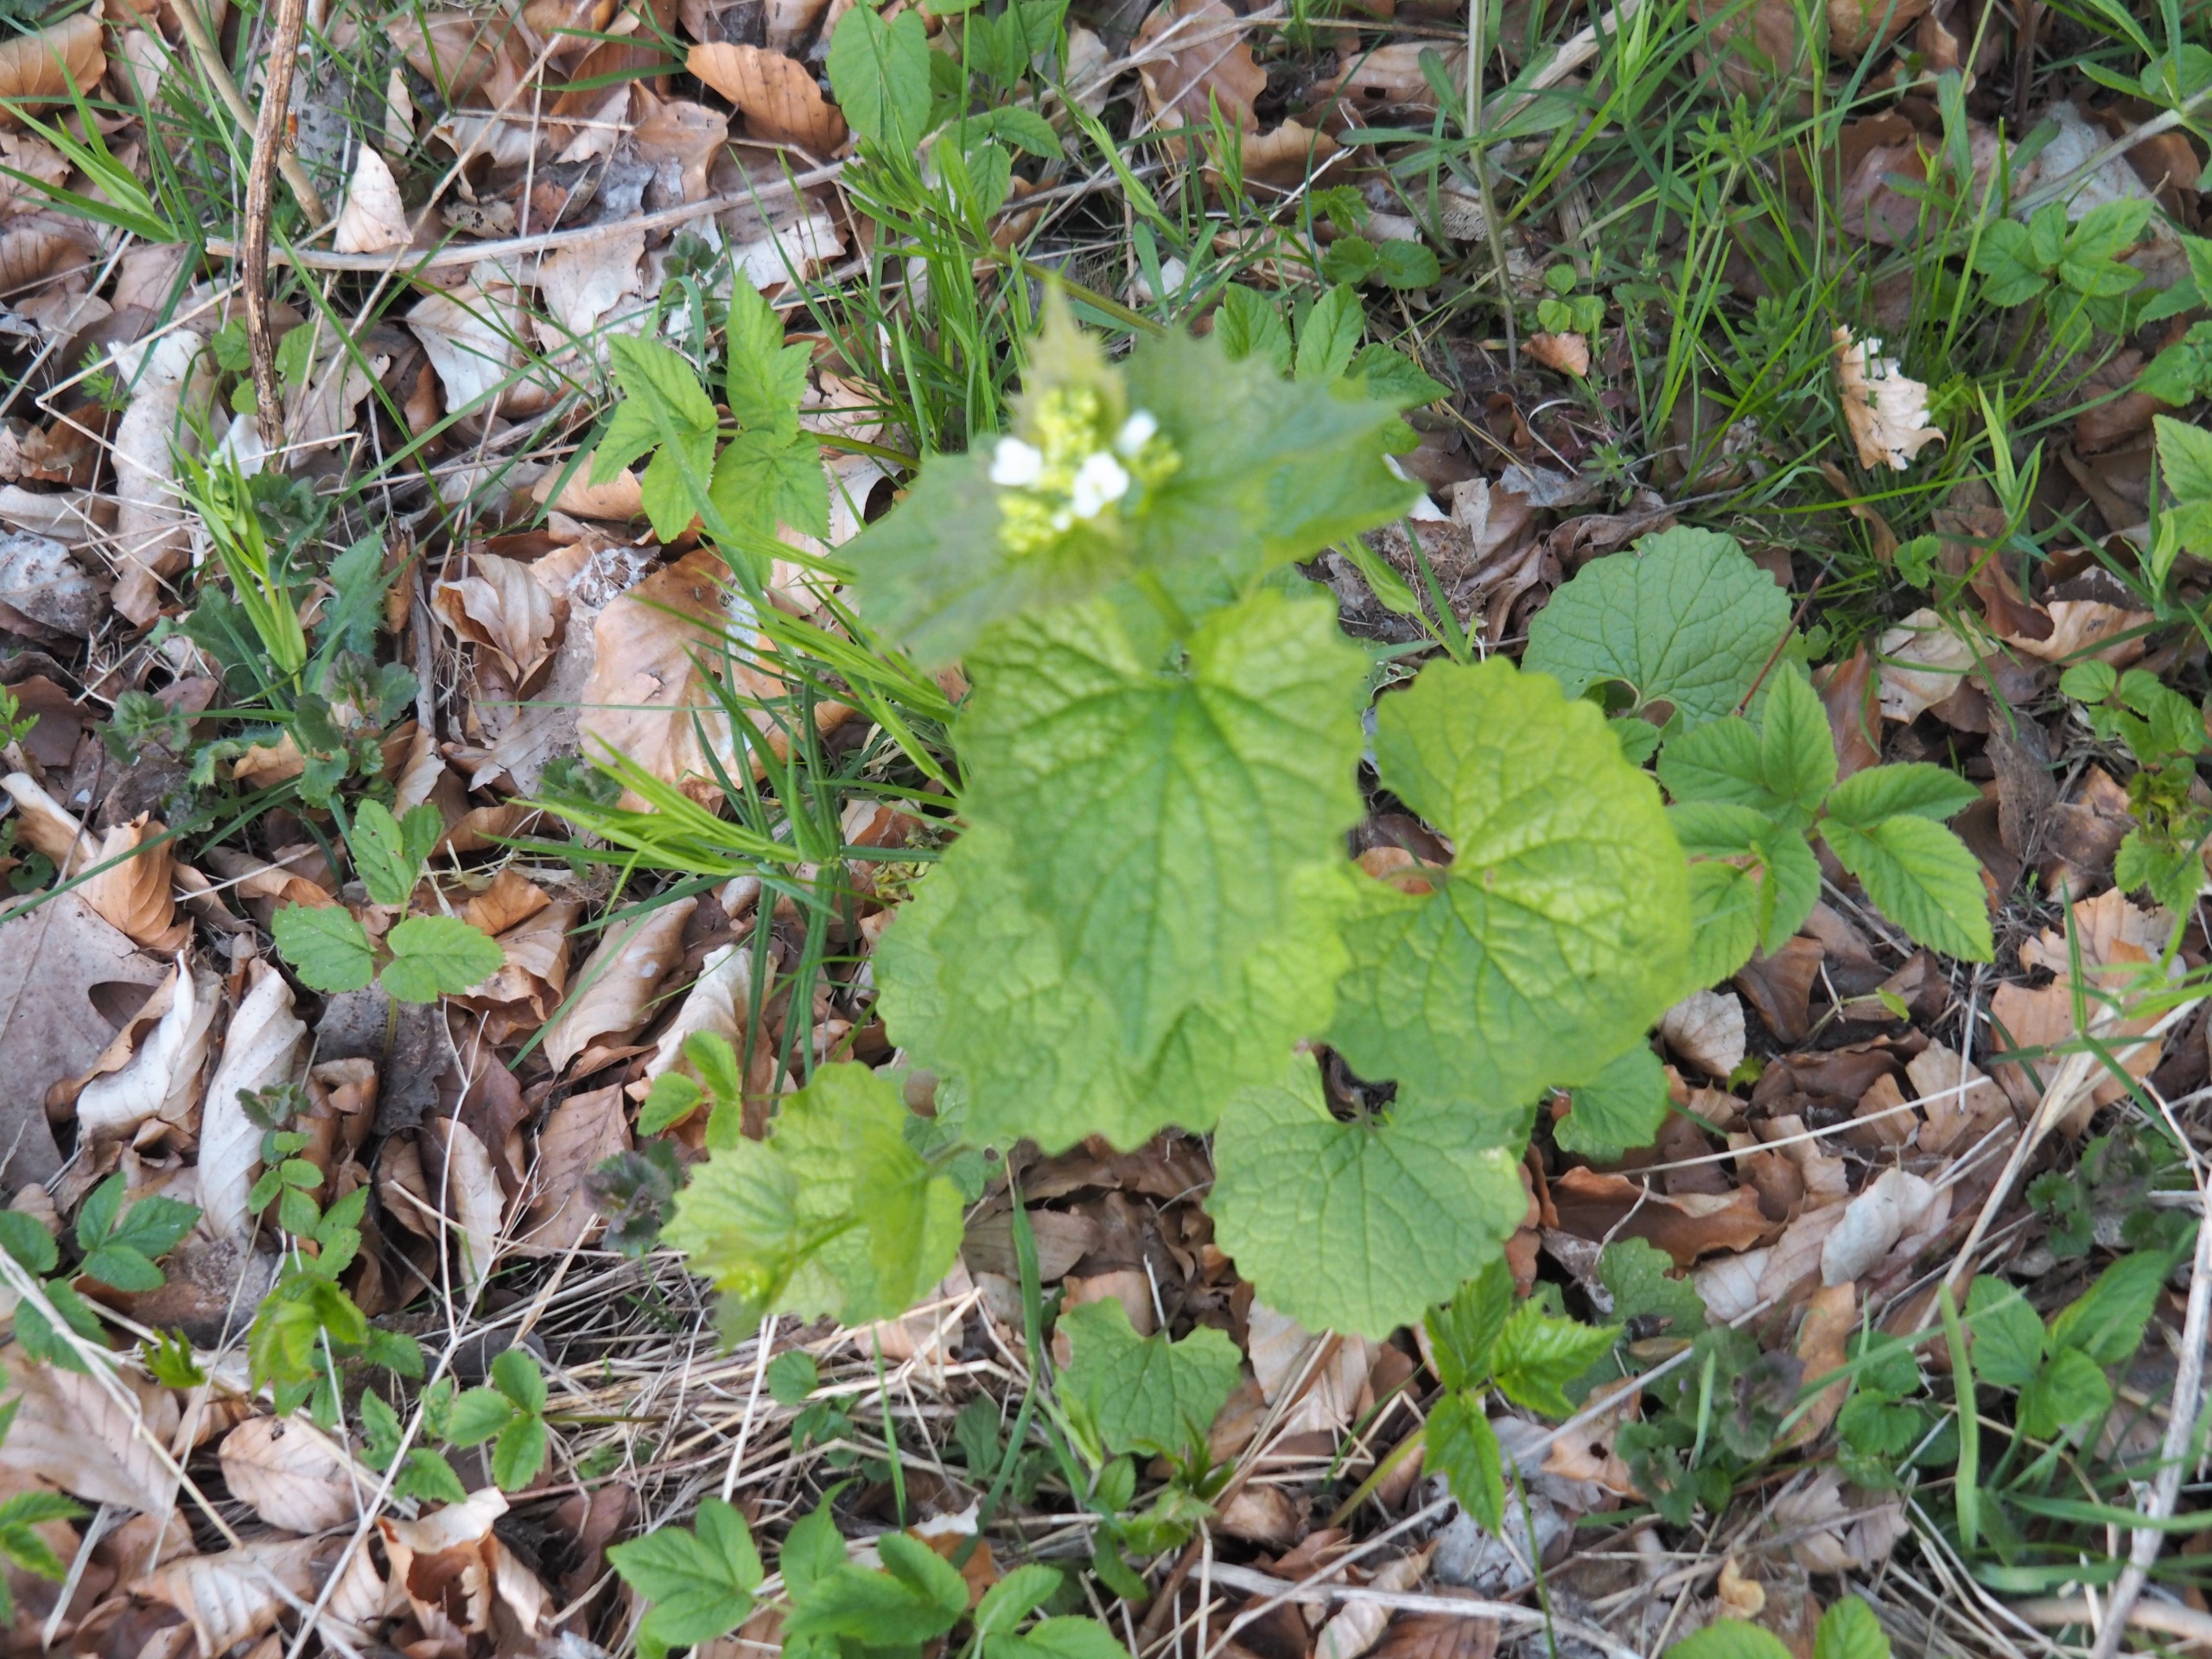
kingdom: Plantae
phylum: Tracheophyta
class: Magnoliopsida
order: Brassicales
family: Brassicaceae
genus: Alliaria
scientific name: Alliaria petiolata
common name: Løgkarse
